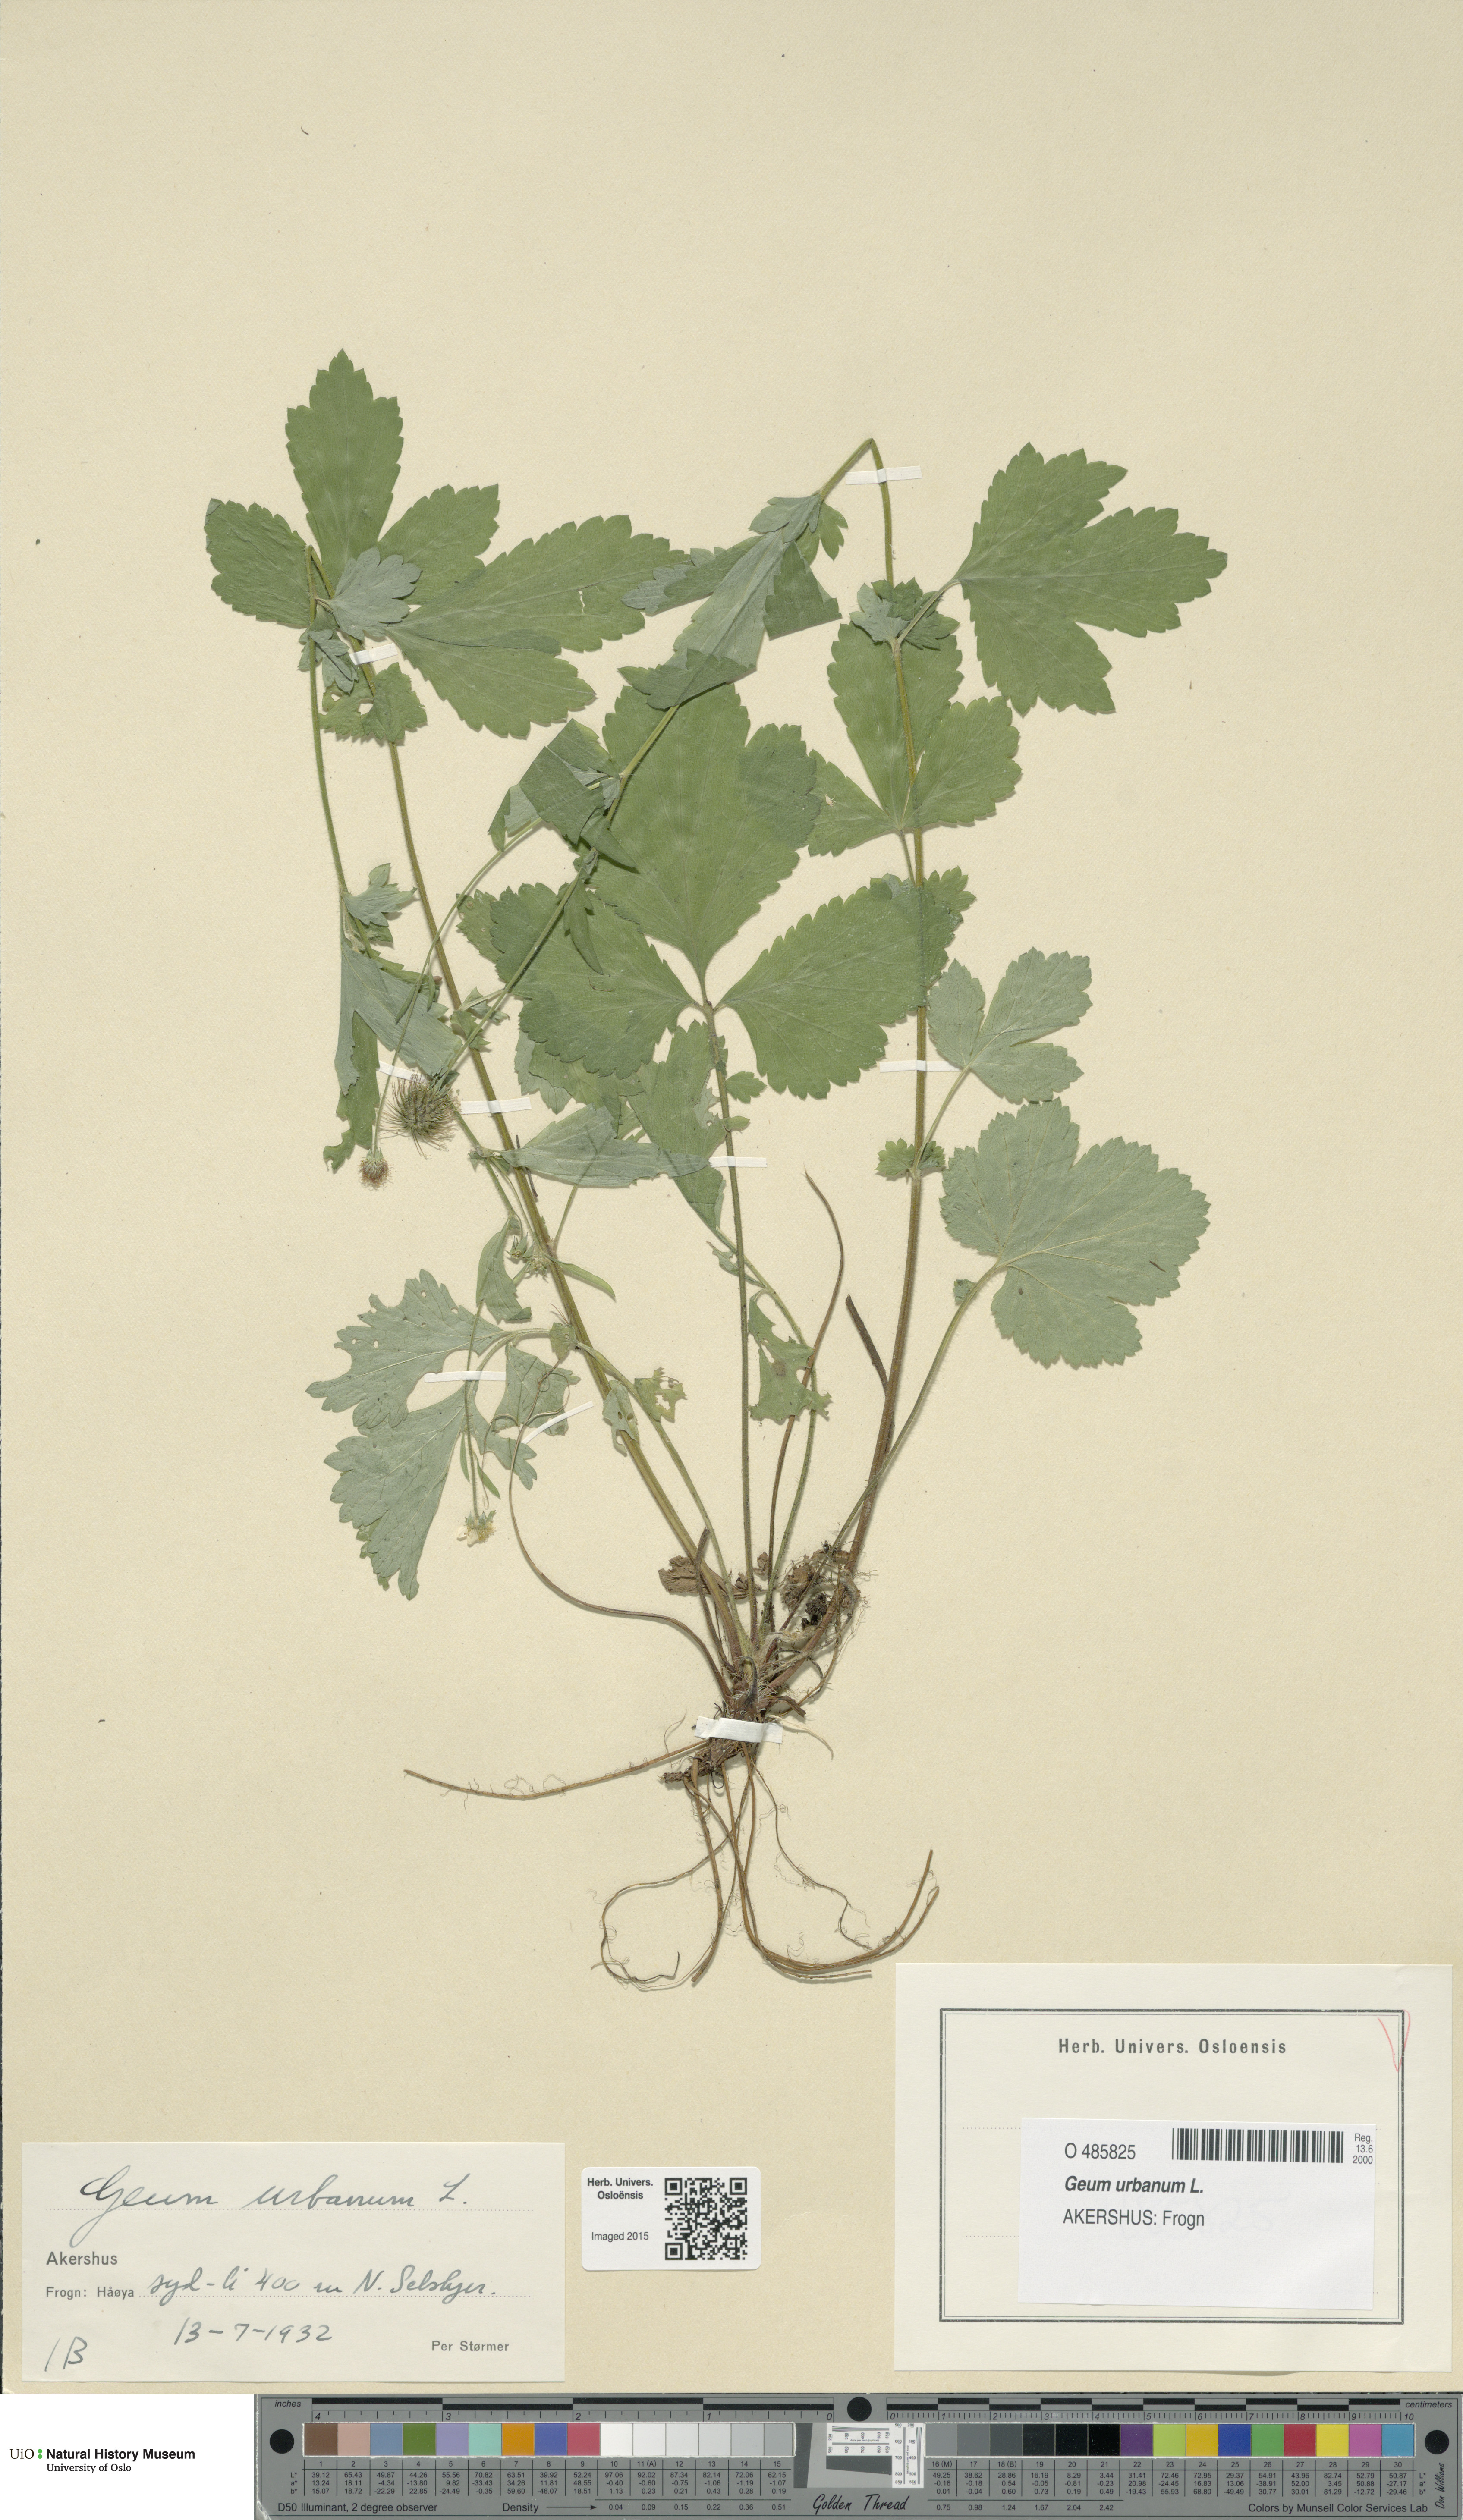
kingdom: Plantae
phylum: Tracheophyta
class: Magnoliopsida
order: Rosales
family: Rosaceae
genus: Geum
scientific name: Geum urbanum
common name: Wood avens
